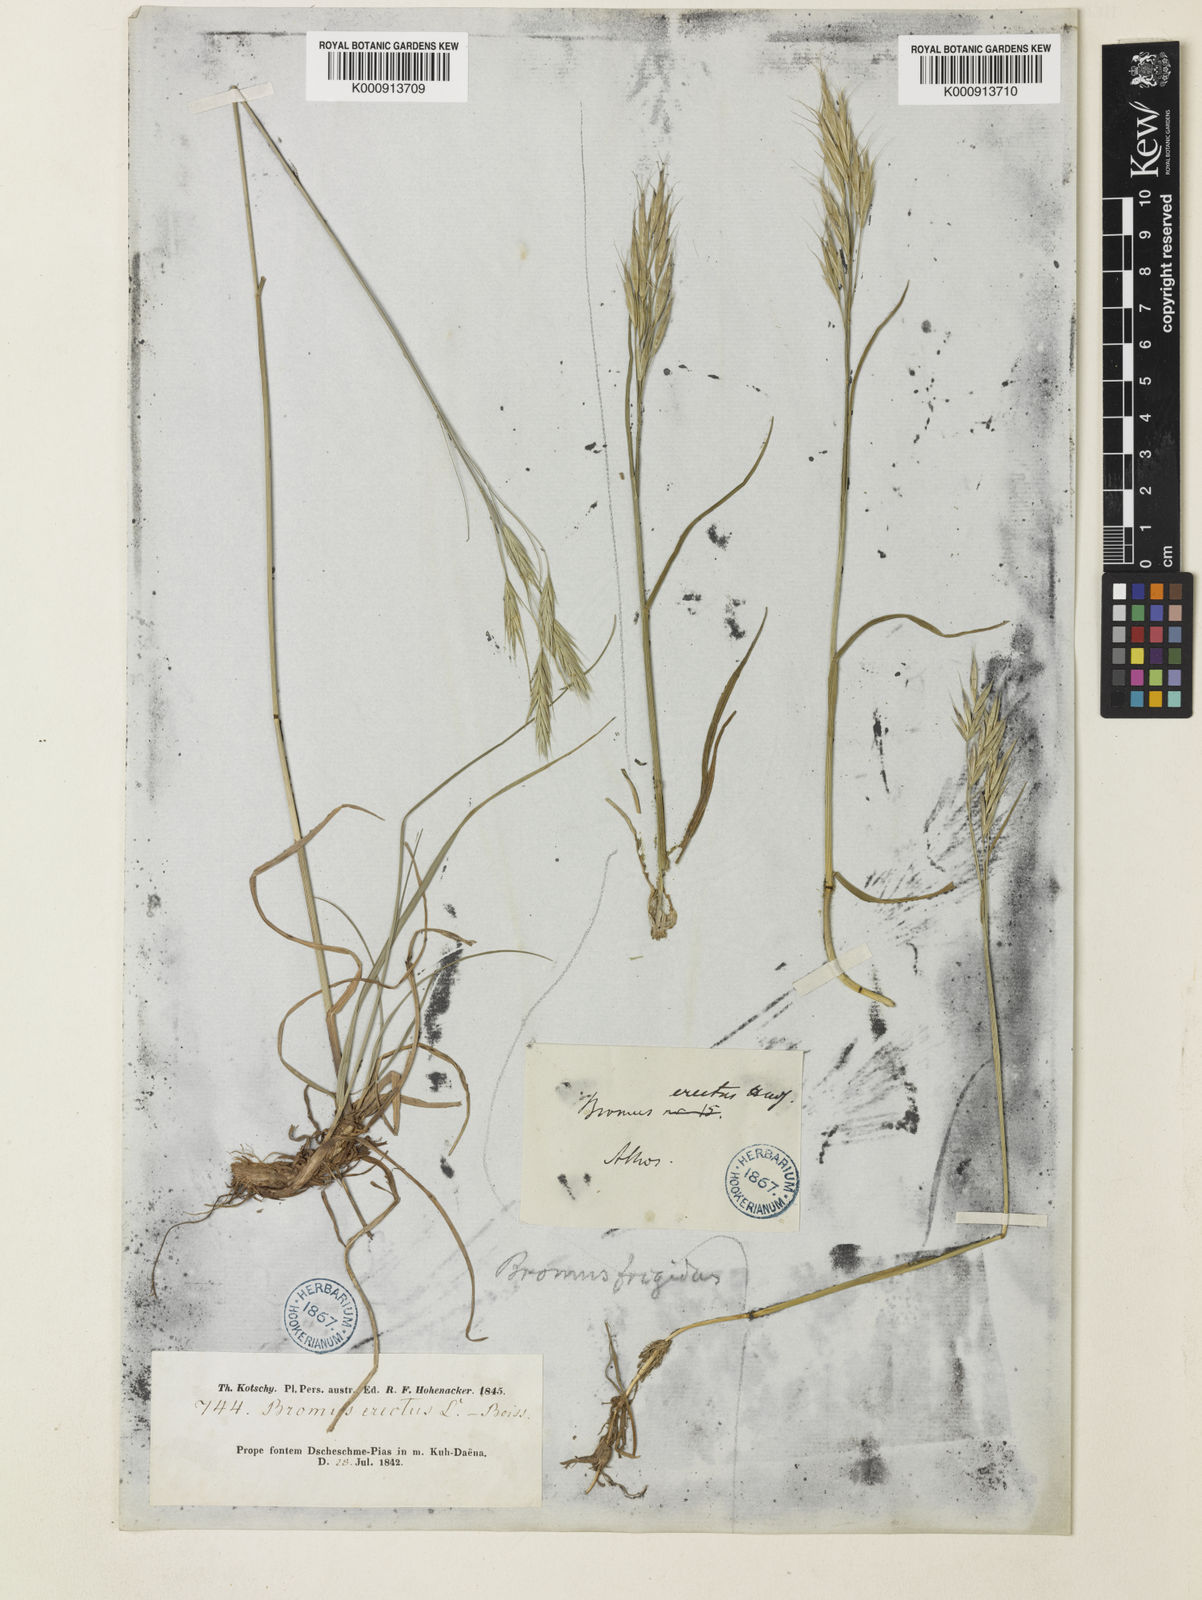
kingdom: Plantae
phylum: Tracheophyta
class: Liliopsida
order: Poales
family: Poaceae
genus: Bromus
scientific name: Bromus frigidus
